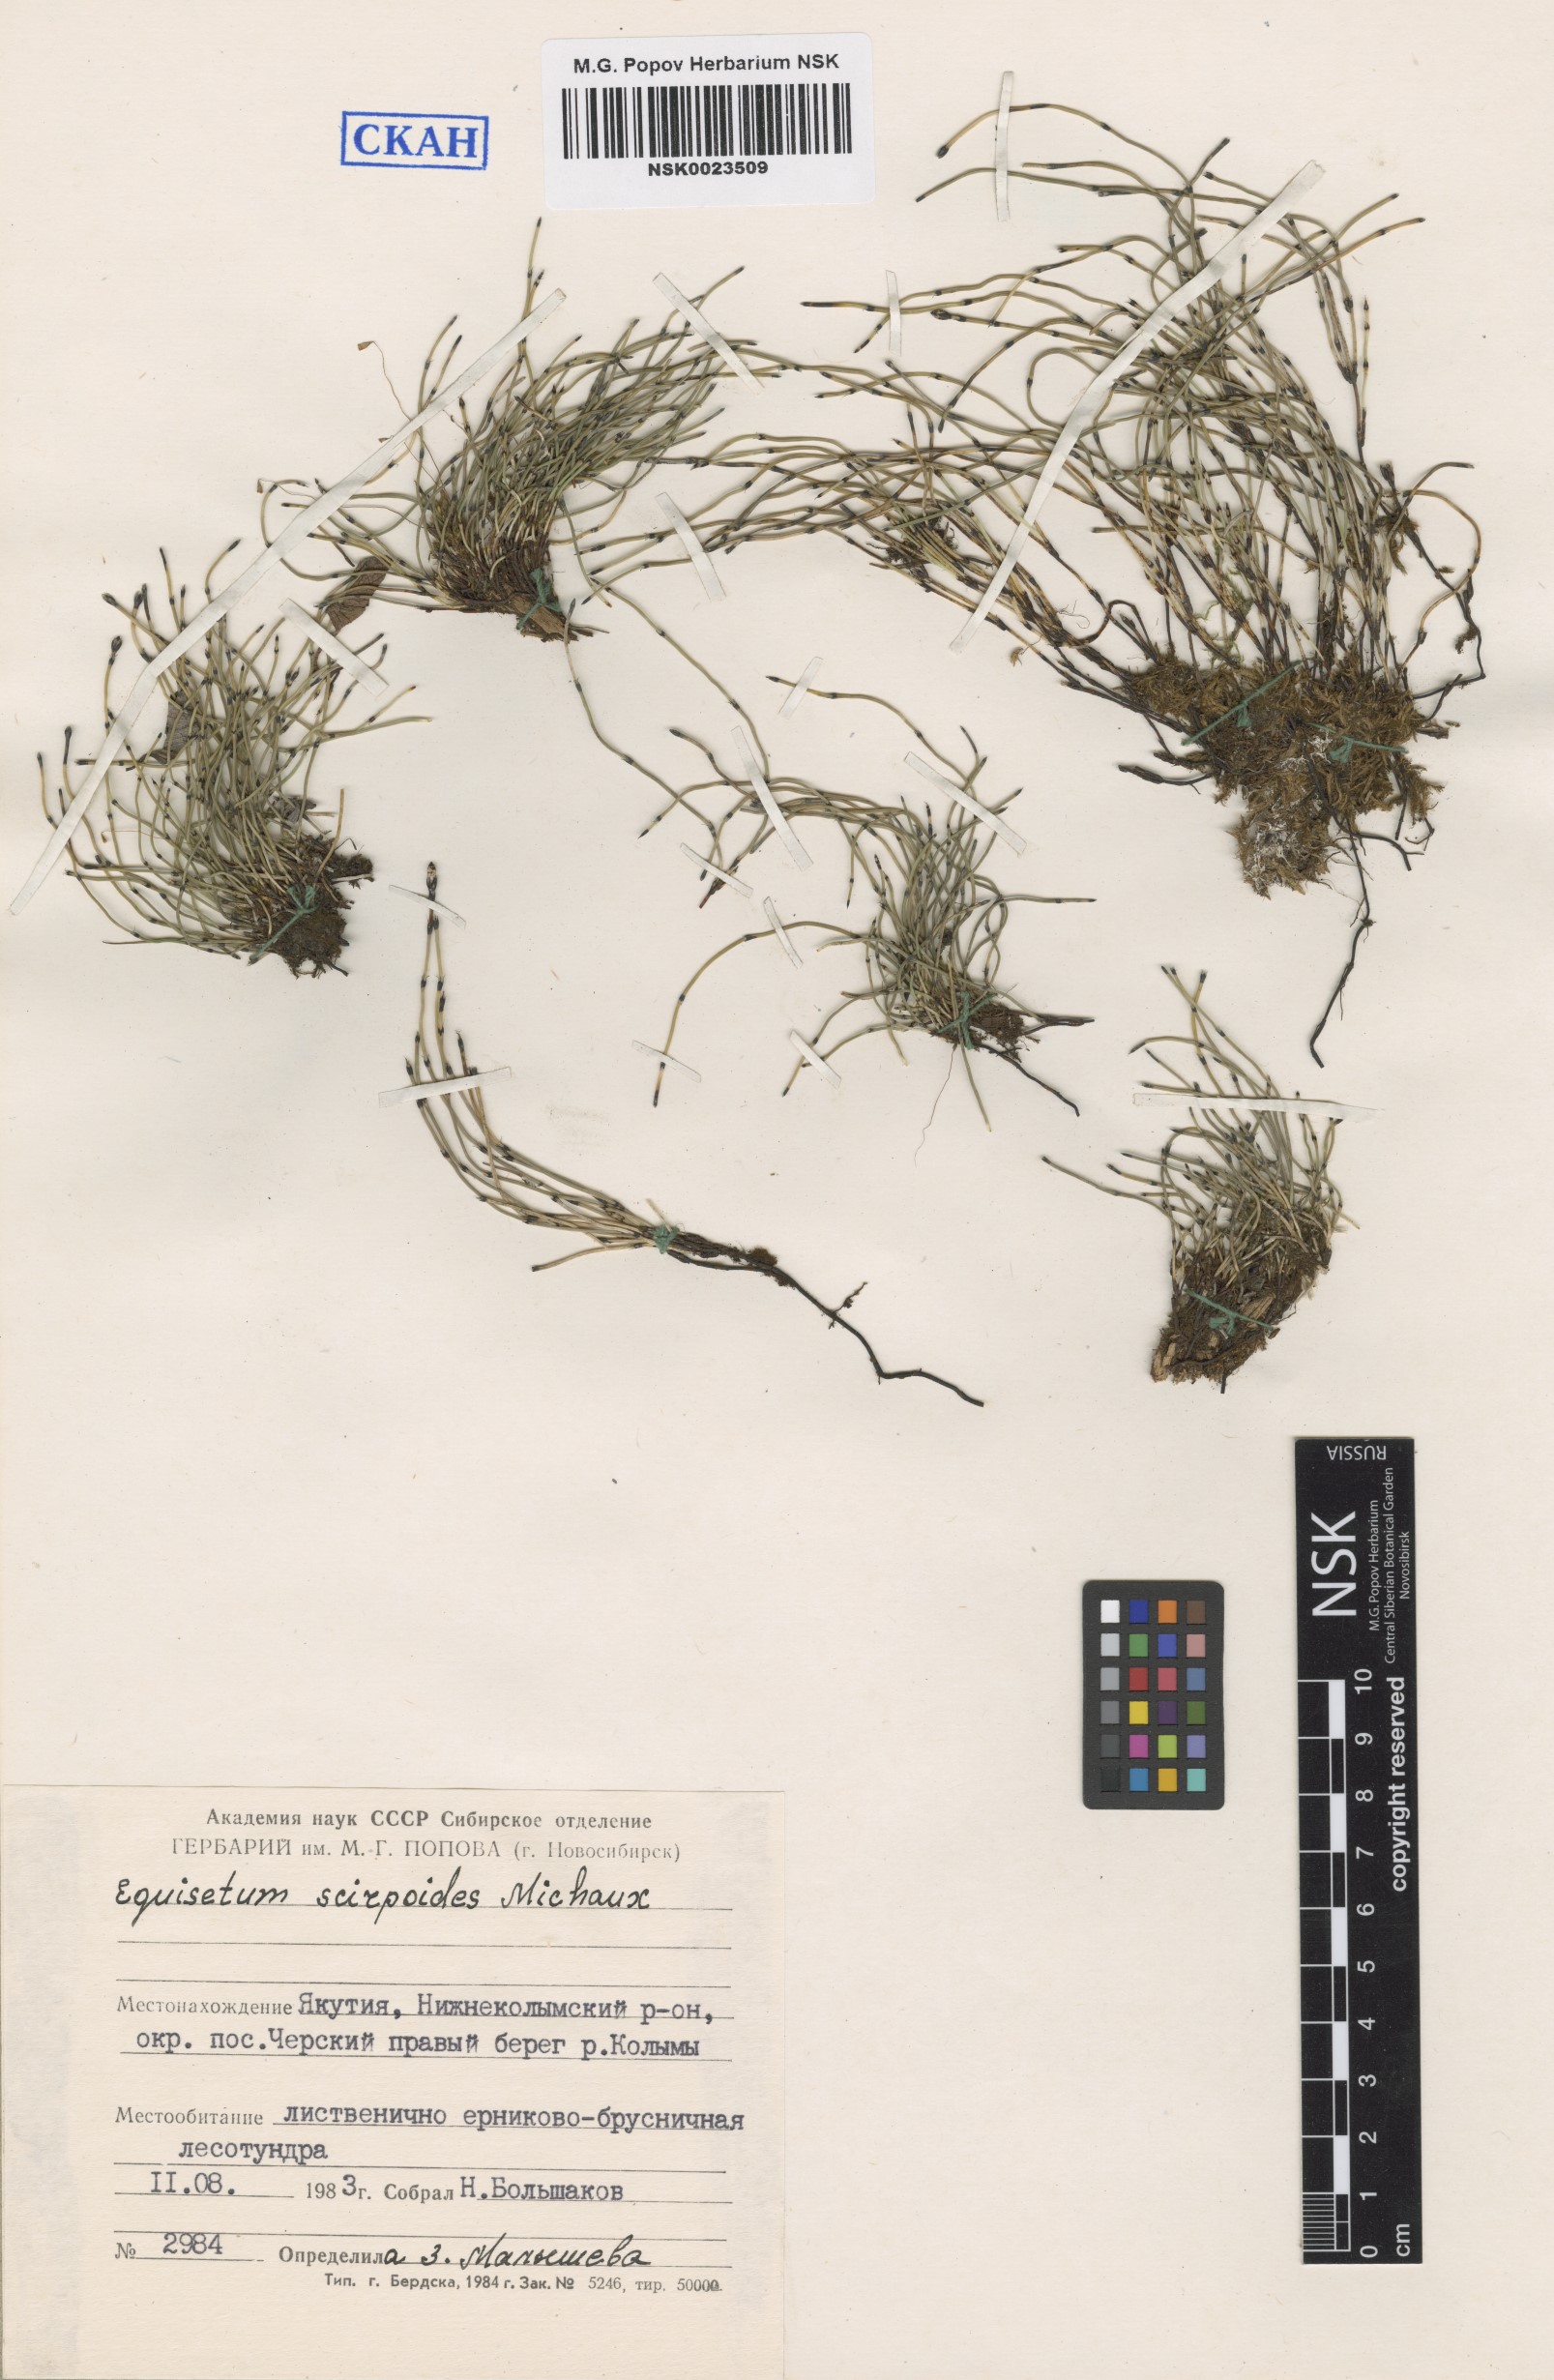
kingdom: Plantae
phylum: Tracheophyta
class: Polypodiopsida
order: Equisetales
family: Equisetaceae
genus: Equisetum
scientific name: Equisetum scirpoides
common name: Delicate horsetail
